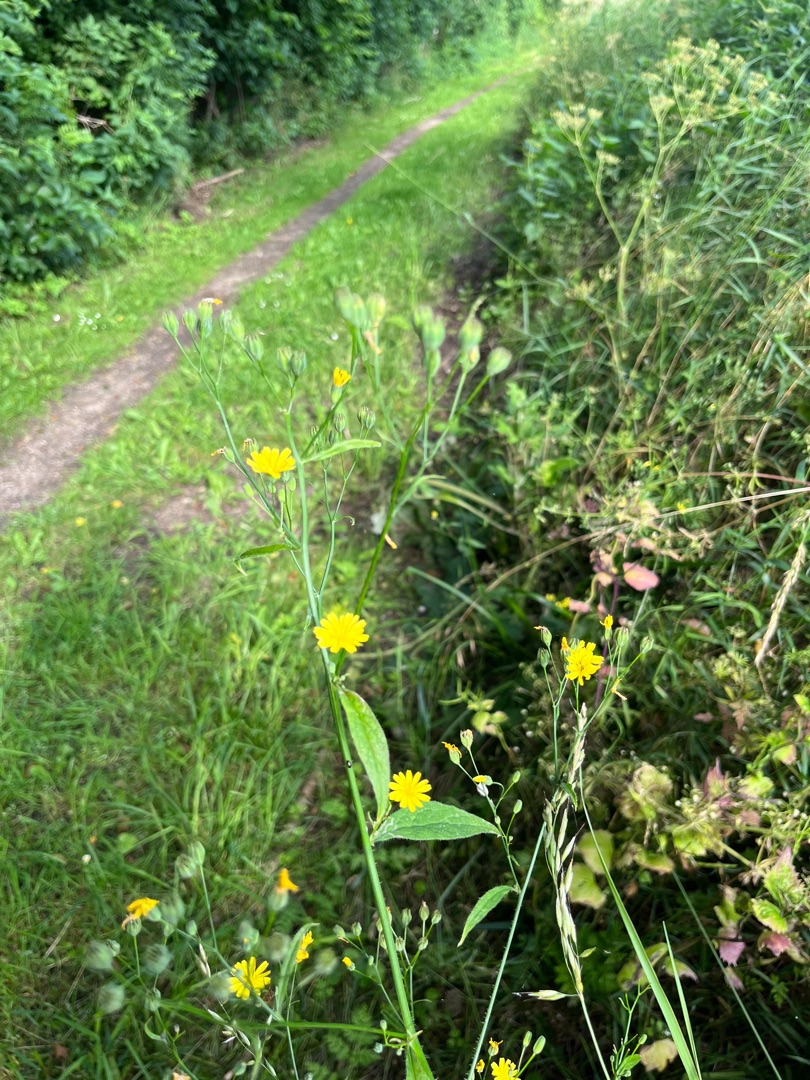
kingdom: Plantae
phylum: Tracheophyta
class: Magnoliopsida
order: Asterales
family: Asteraceae
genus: Lapsana
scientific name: Lapsana communis
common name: Haremad
